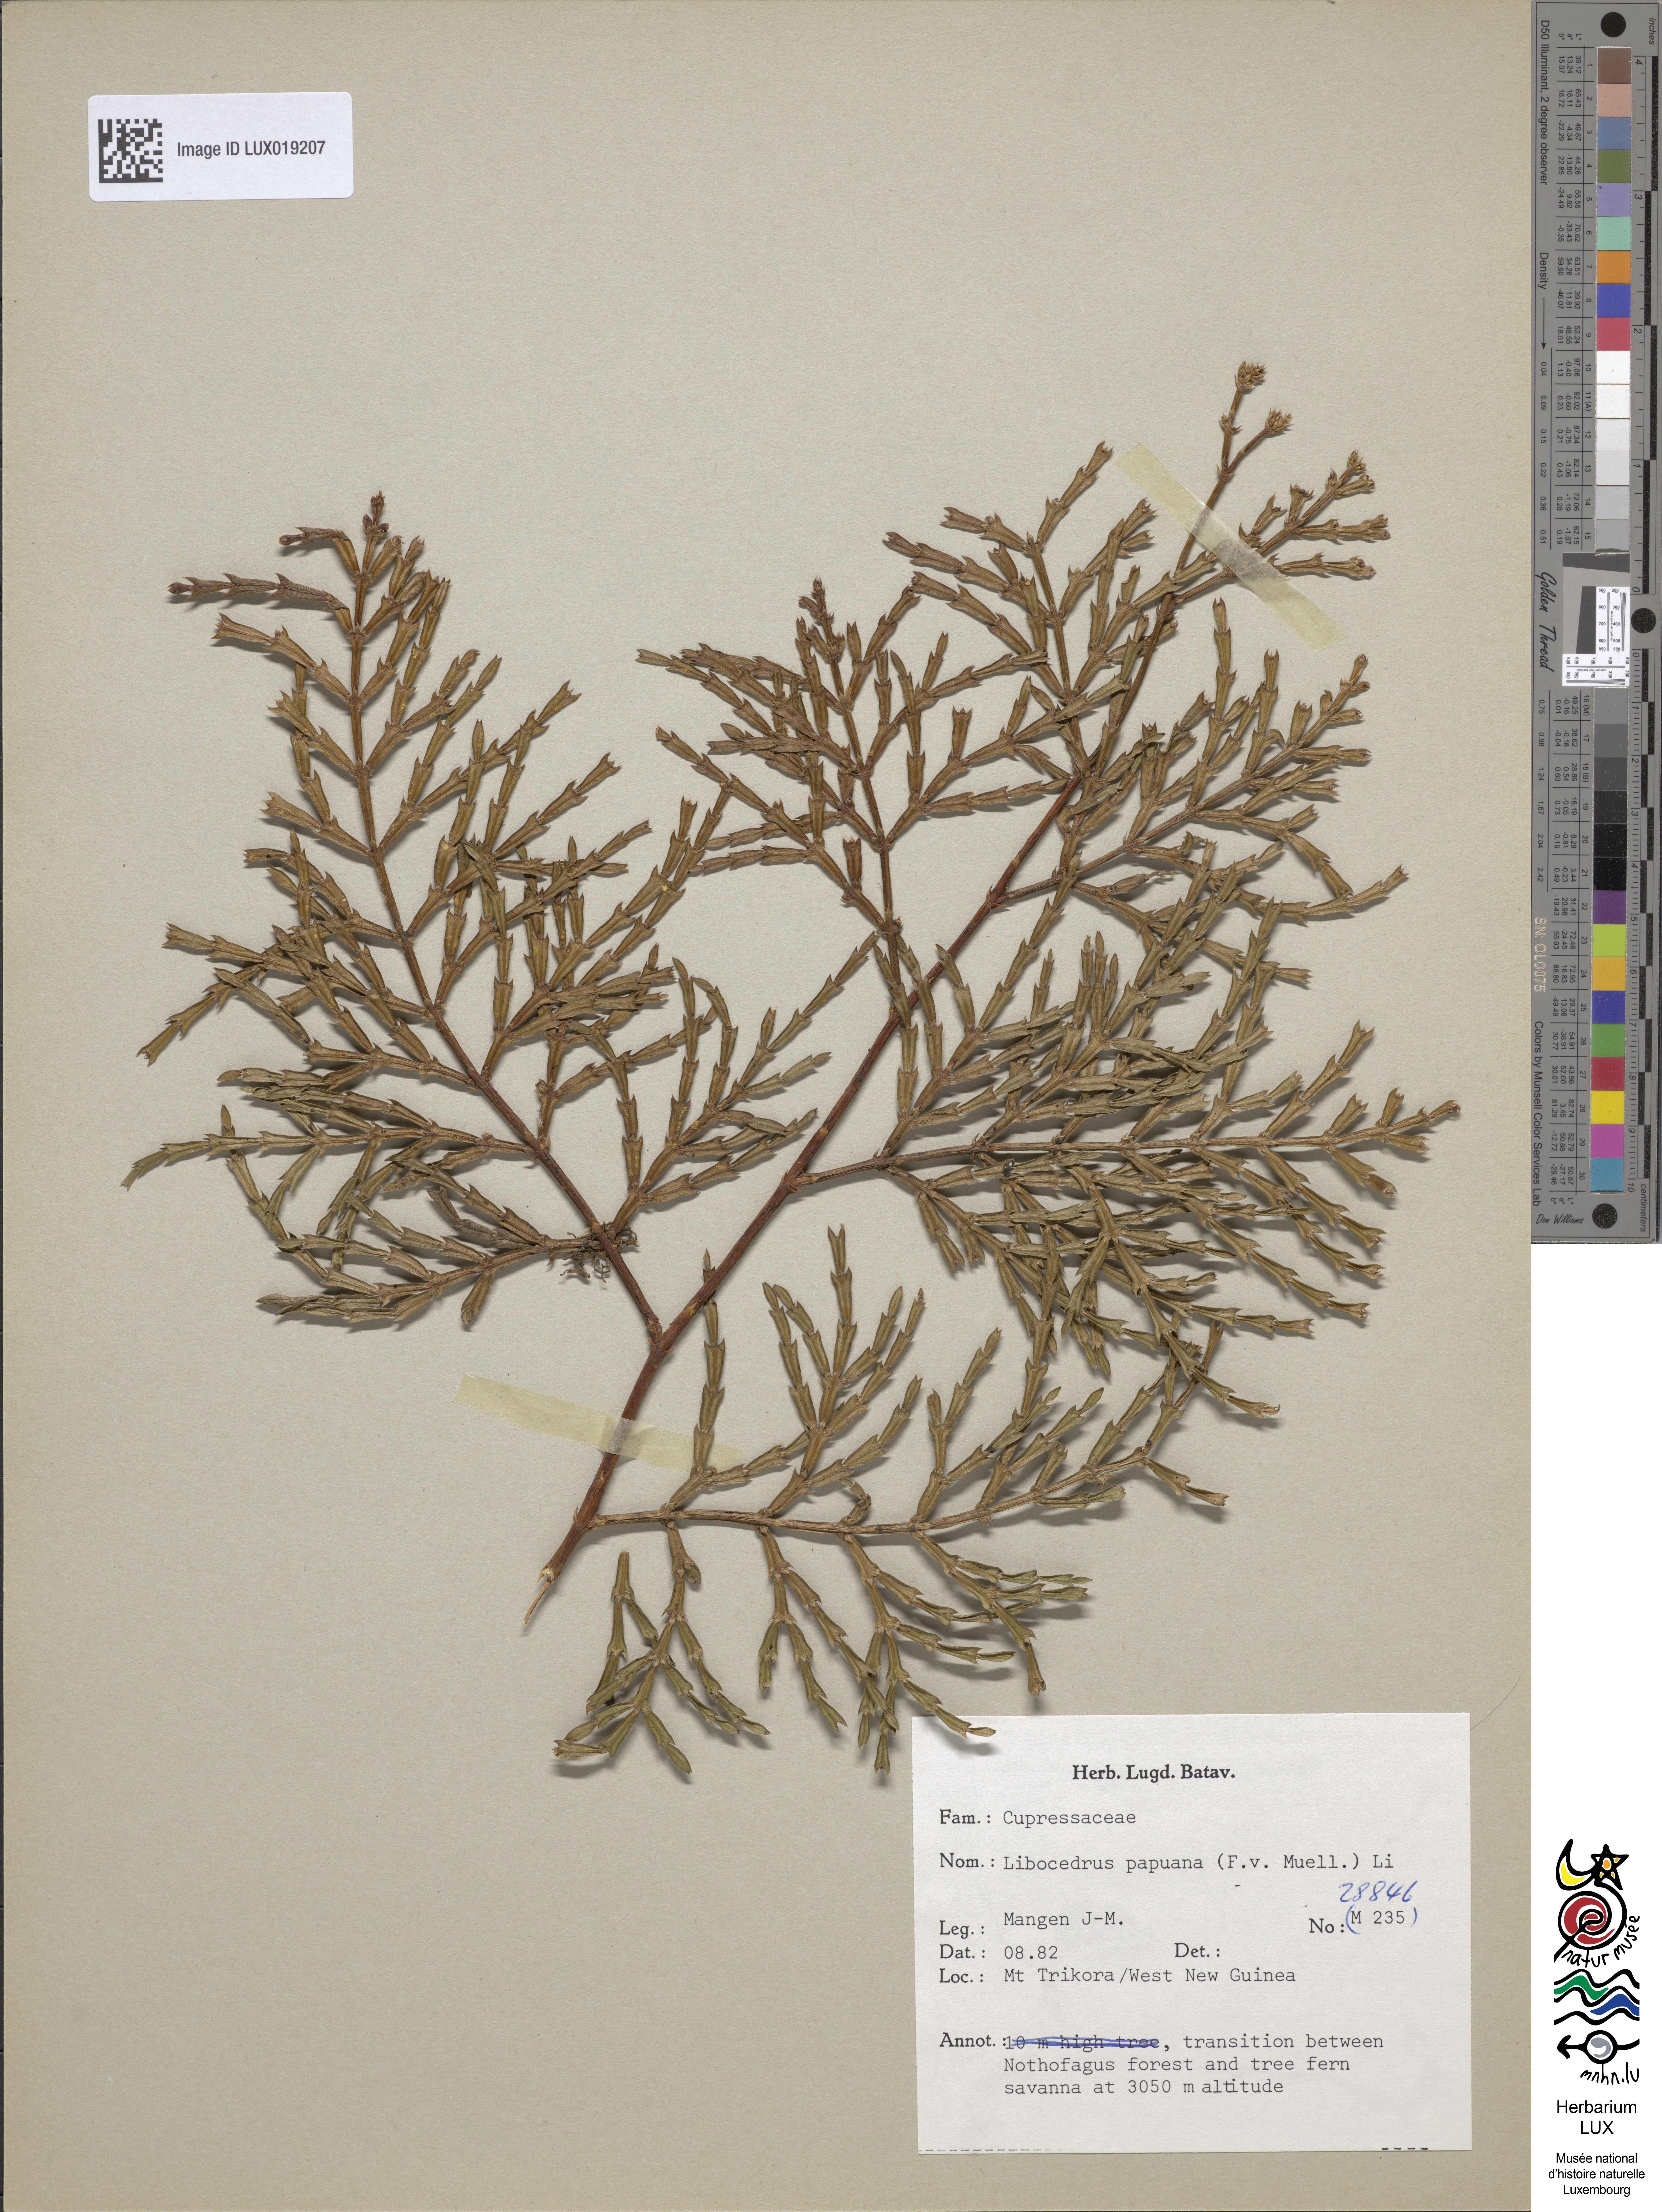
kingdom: Plantae
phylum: Tracheophyta
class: Pinopsida
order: Pinales
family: Cupressaceae
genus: Papuacedrus
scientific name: Papuacedrus papuana
